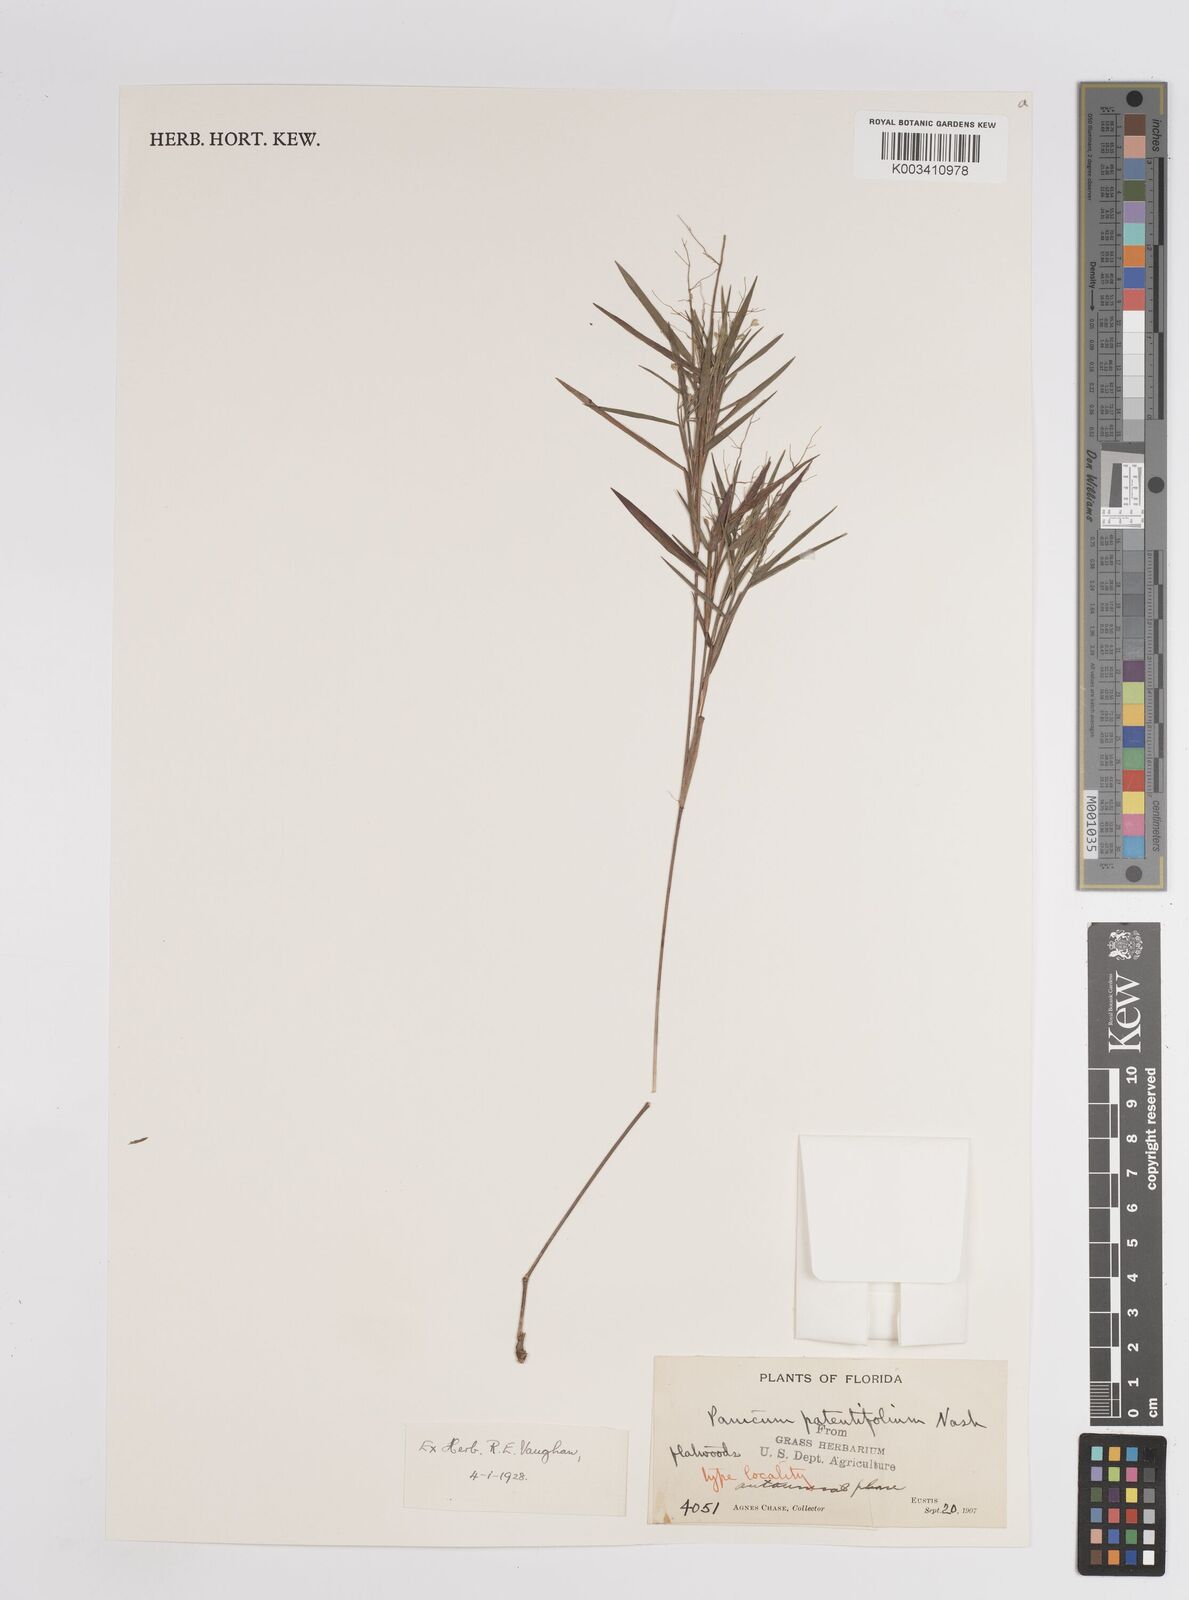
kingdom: Plantae
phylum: Tracheophyta
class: Liliopsida
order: Poales
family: Poaceae
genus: Dichanthelium
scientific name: Dichanthelium portoricense
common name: American panicgrass
